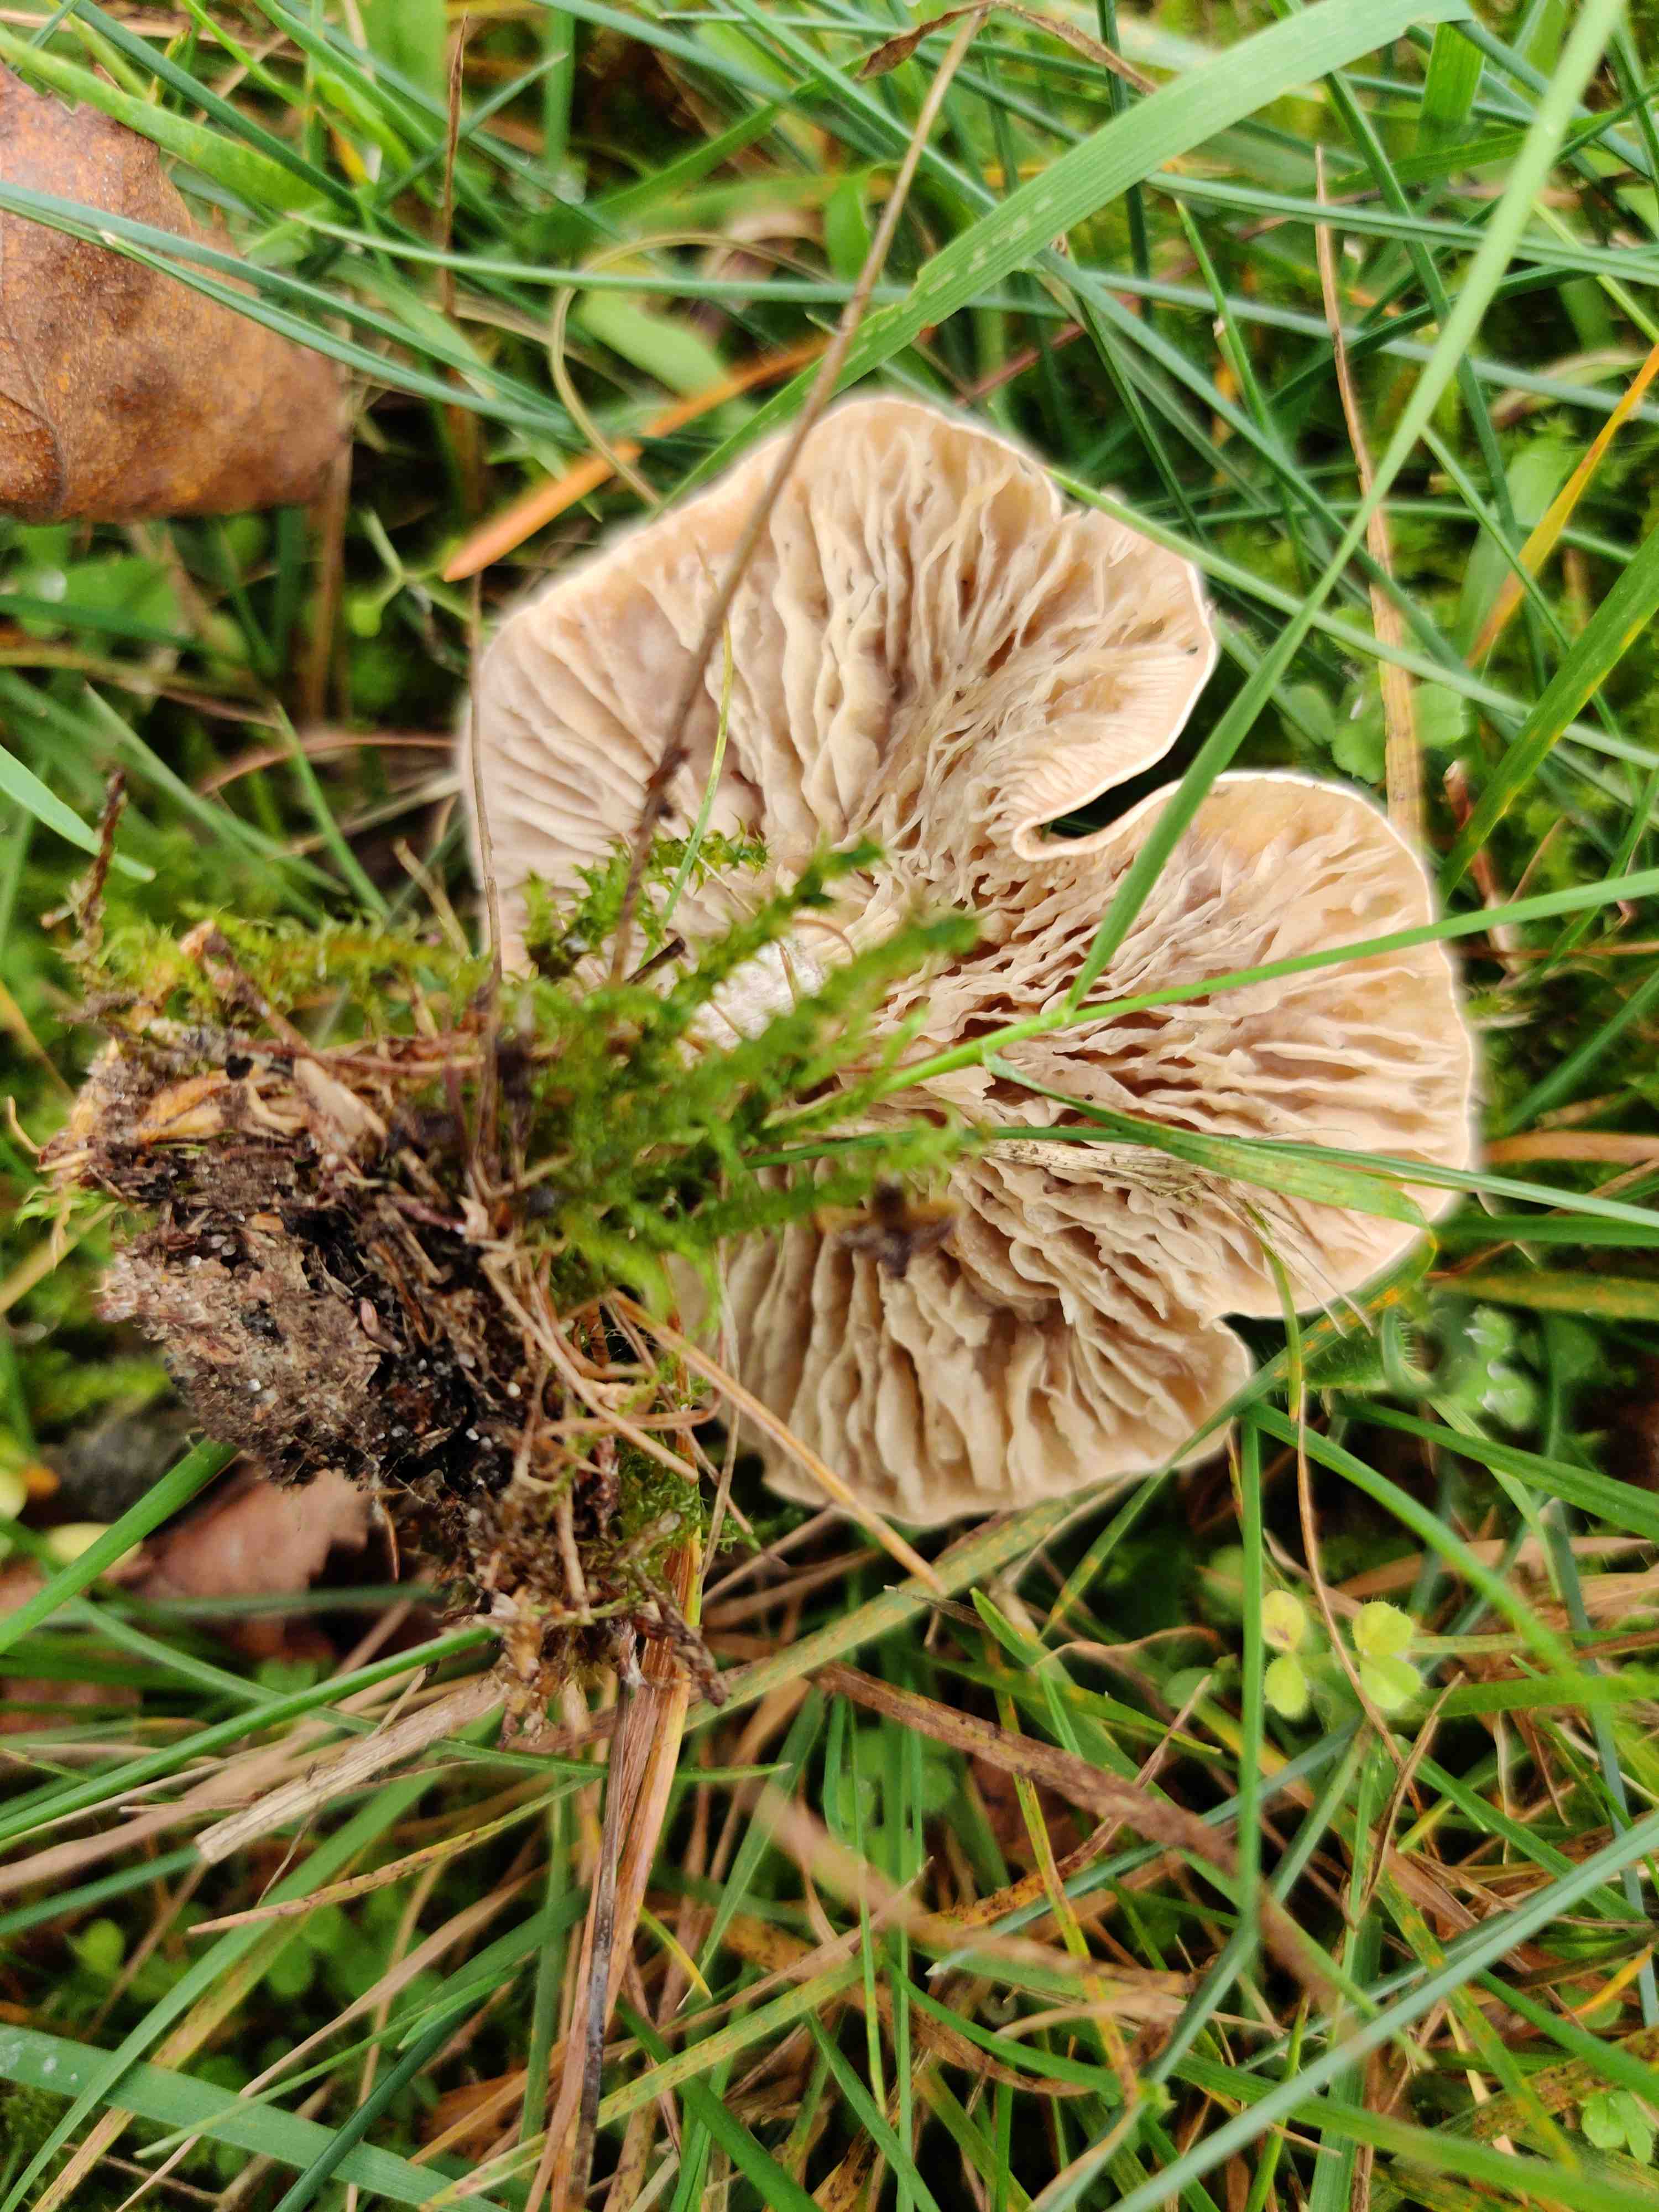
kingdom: Fungi
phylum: Basidiomycota
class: Agaricomycetes
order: Agaricales
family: Tricholomataceae
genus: Clitocybe
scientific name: Clitocybe rivulosa
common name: eng-tragthat
